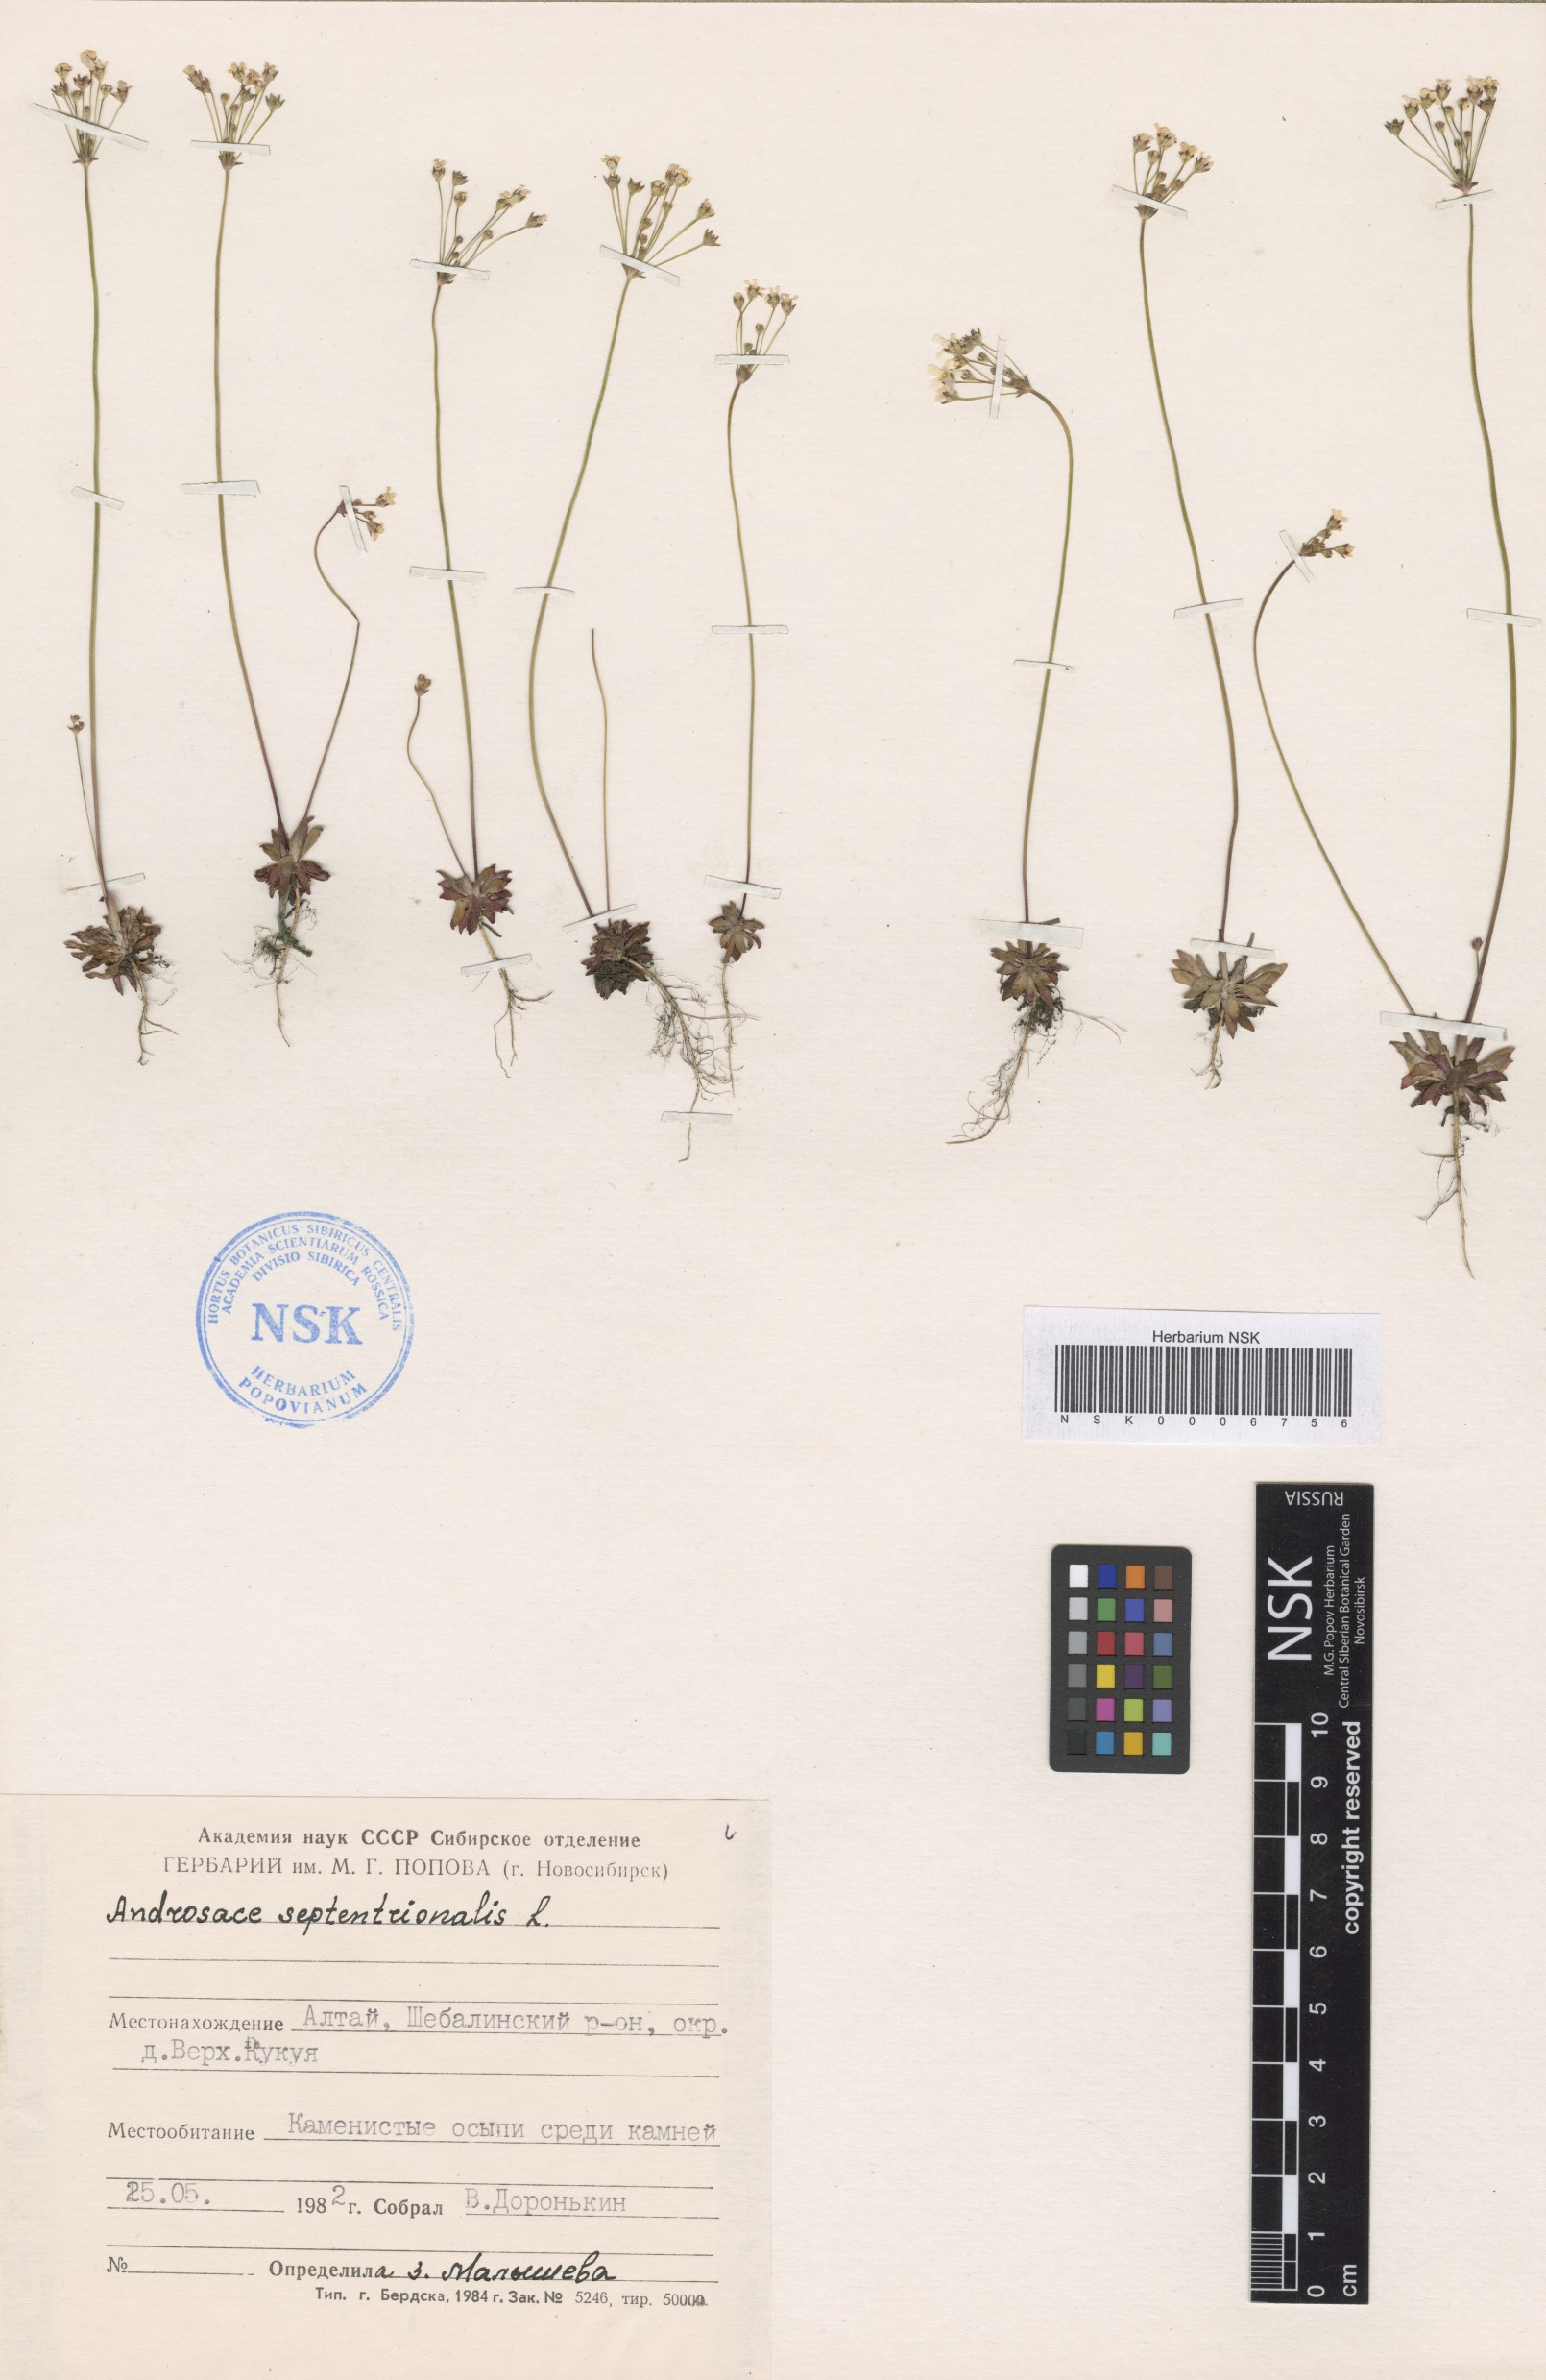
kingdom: Plantae
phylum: Tracheophyta
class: Magnoliopsida
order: Ericales
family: Primulaceae
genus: Androsace
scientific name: Androsace septentrionalis
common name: Hairy northern fairy-candelabra
